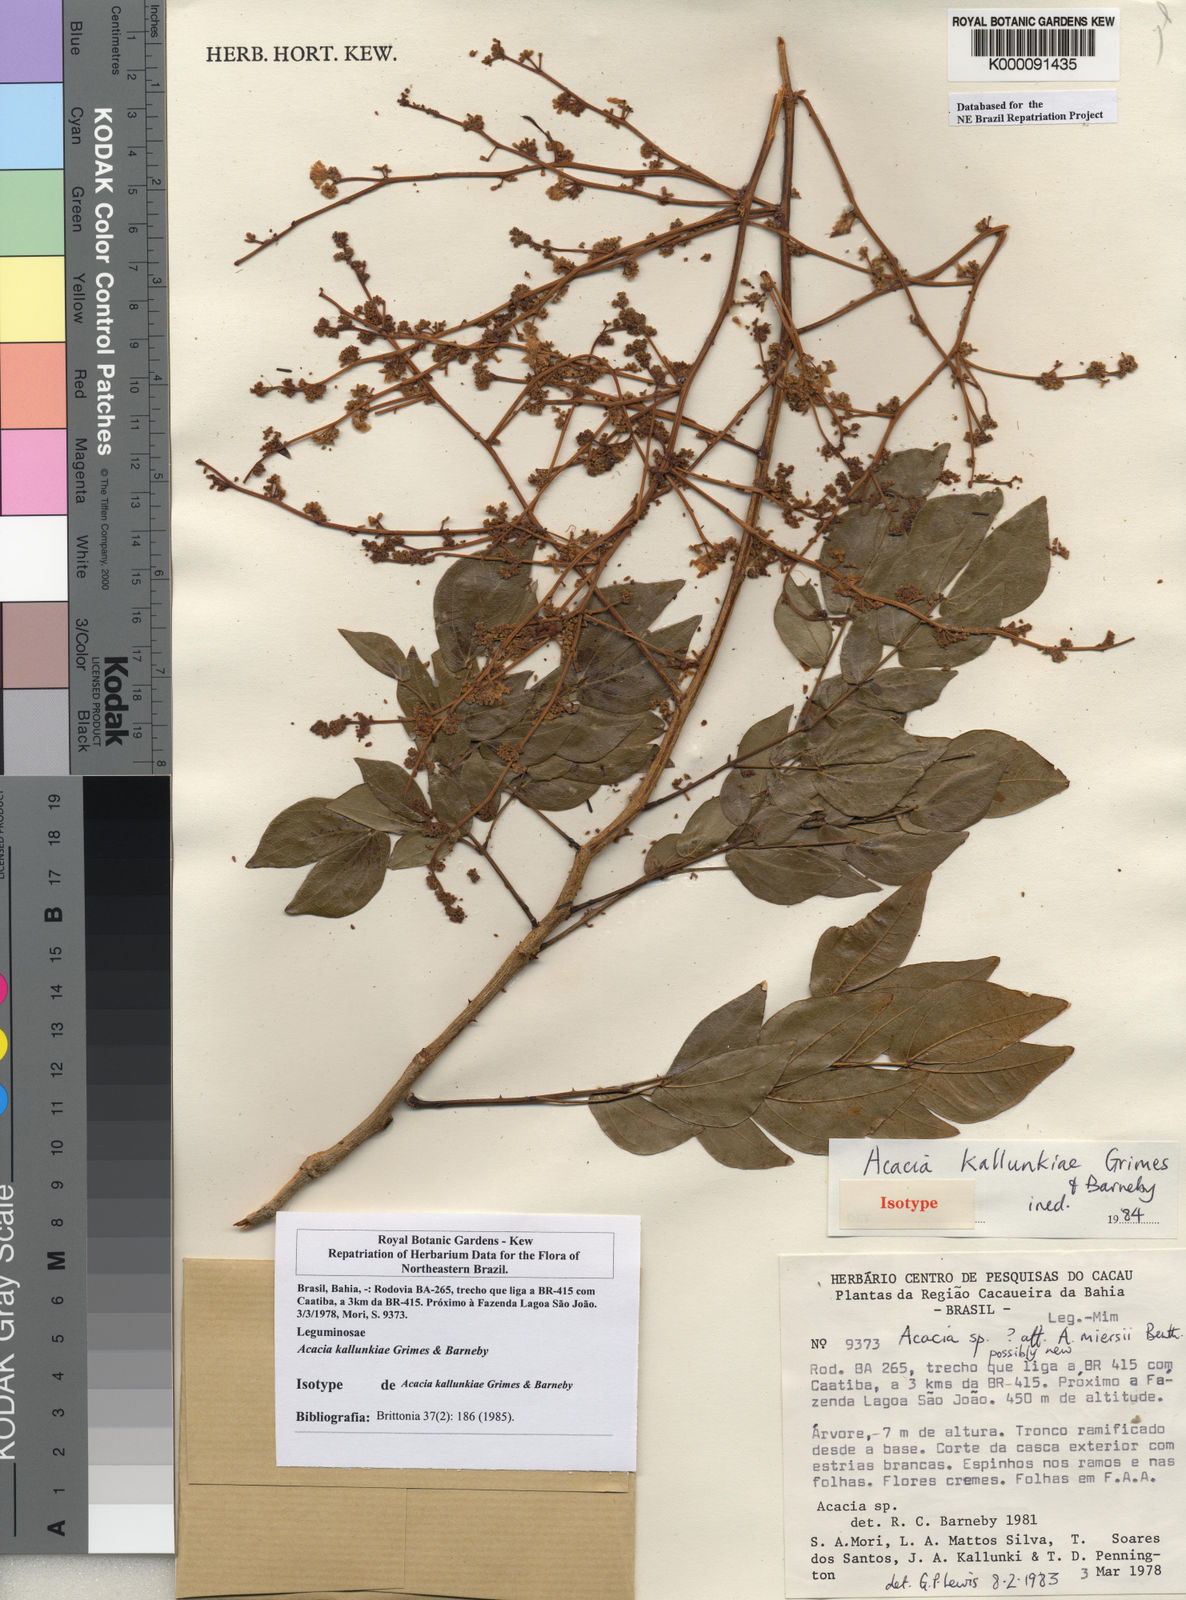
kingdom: Plantae
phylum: Tracheophyta
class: Magnoliopsida
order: Fabales
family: Fabaceae
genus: Senegalia
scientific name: Senegalia kallunkiae
